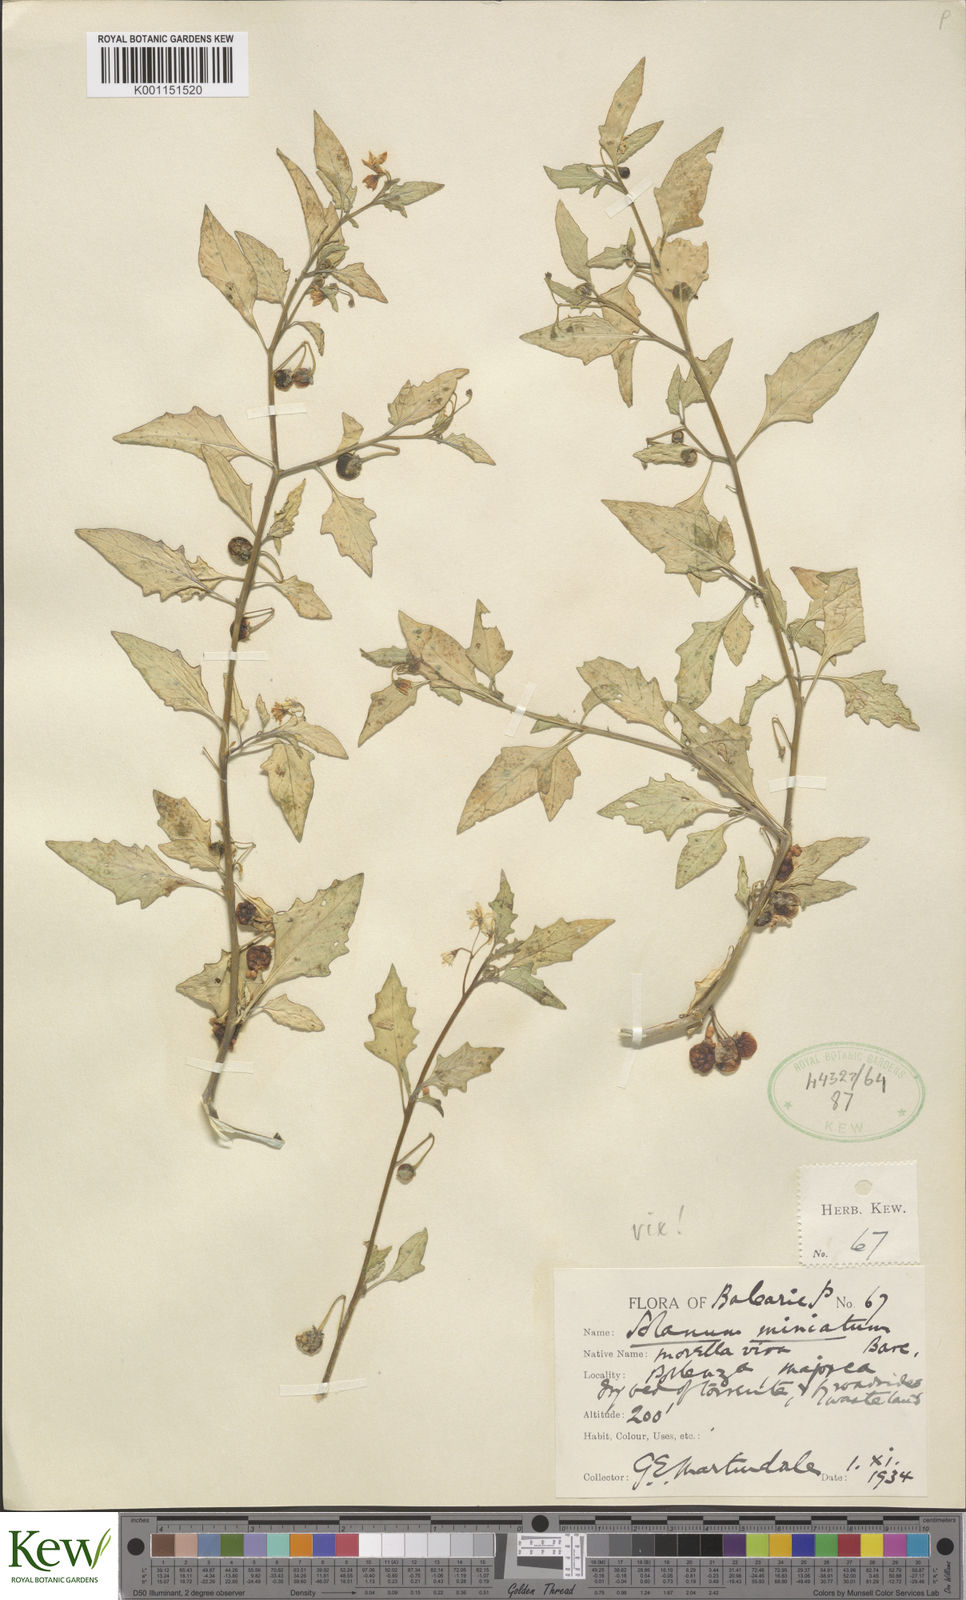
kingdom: Plantae
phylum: Tracheophyta
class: Magnoliopsida
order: Solanales
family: Solanaceae
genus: Solanum
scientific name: Solanum villosum
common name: Red nightshade
